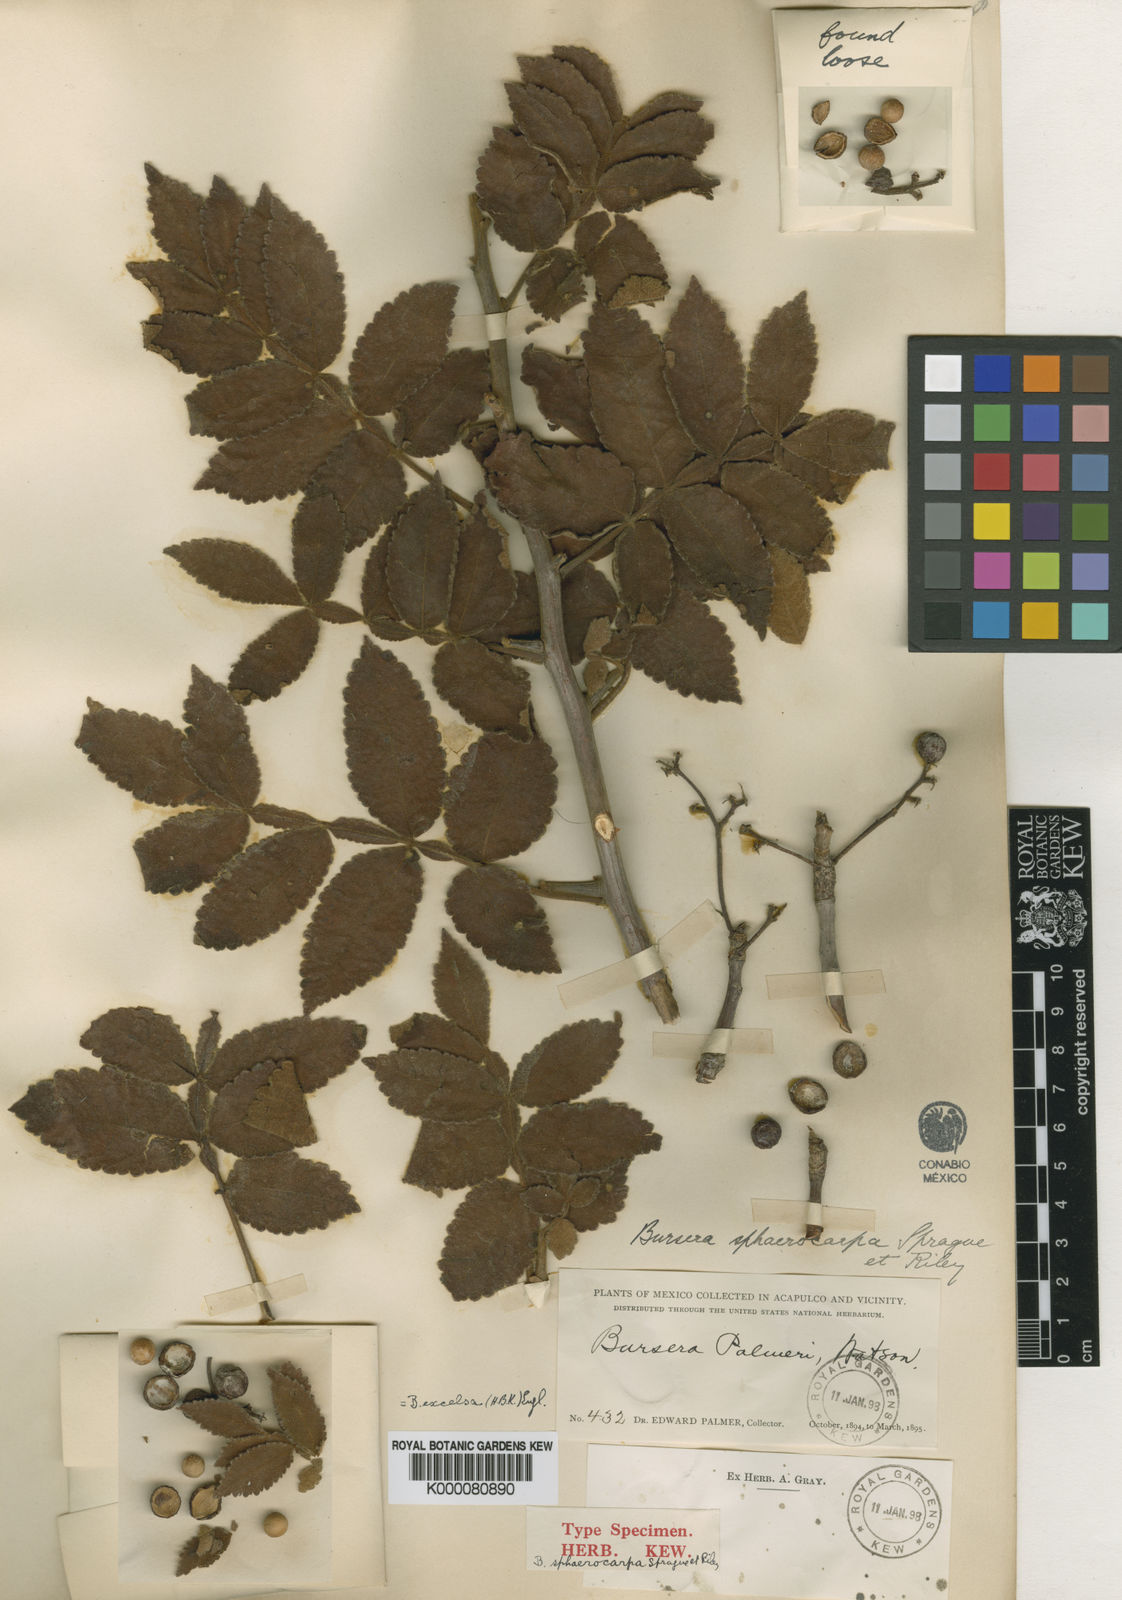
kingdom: Plantae
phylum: Tracheophyta
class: Magnoliopsida
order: Sapindales
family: Burseraceae
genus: Bursera
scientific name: Bursera excelsa
